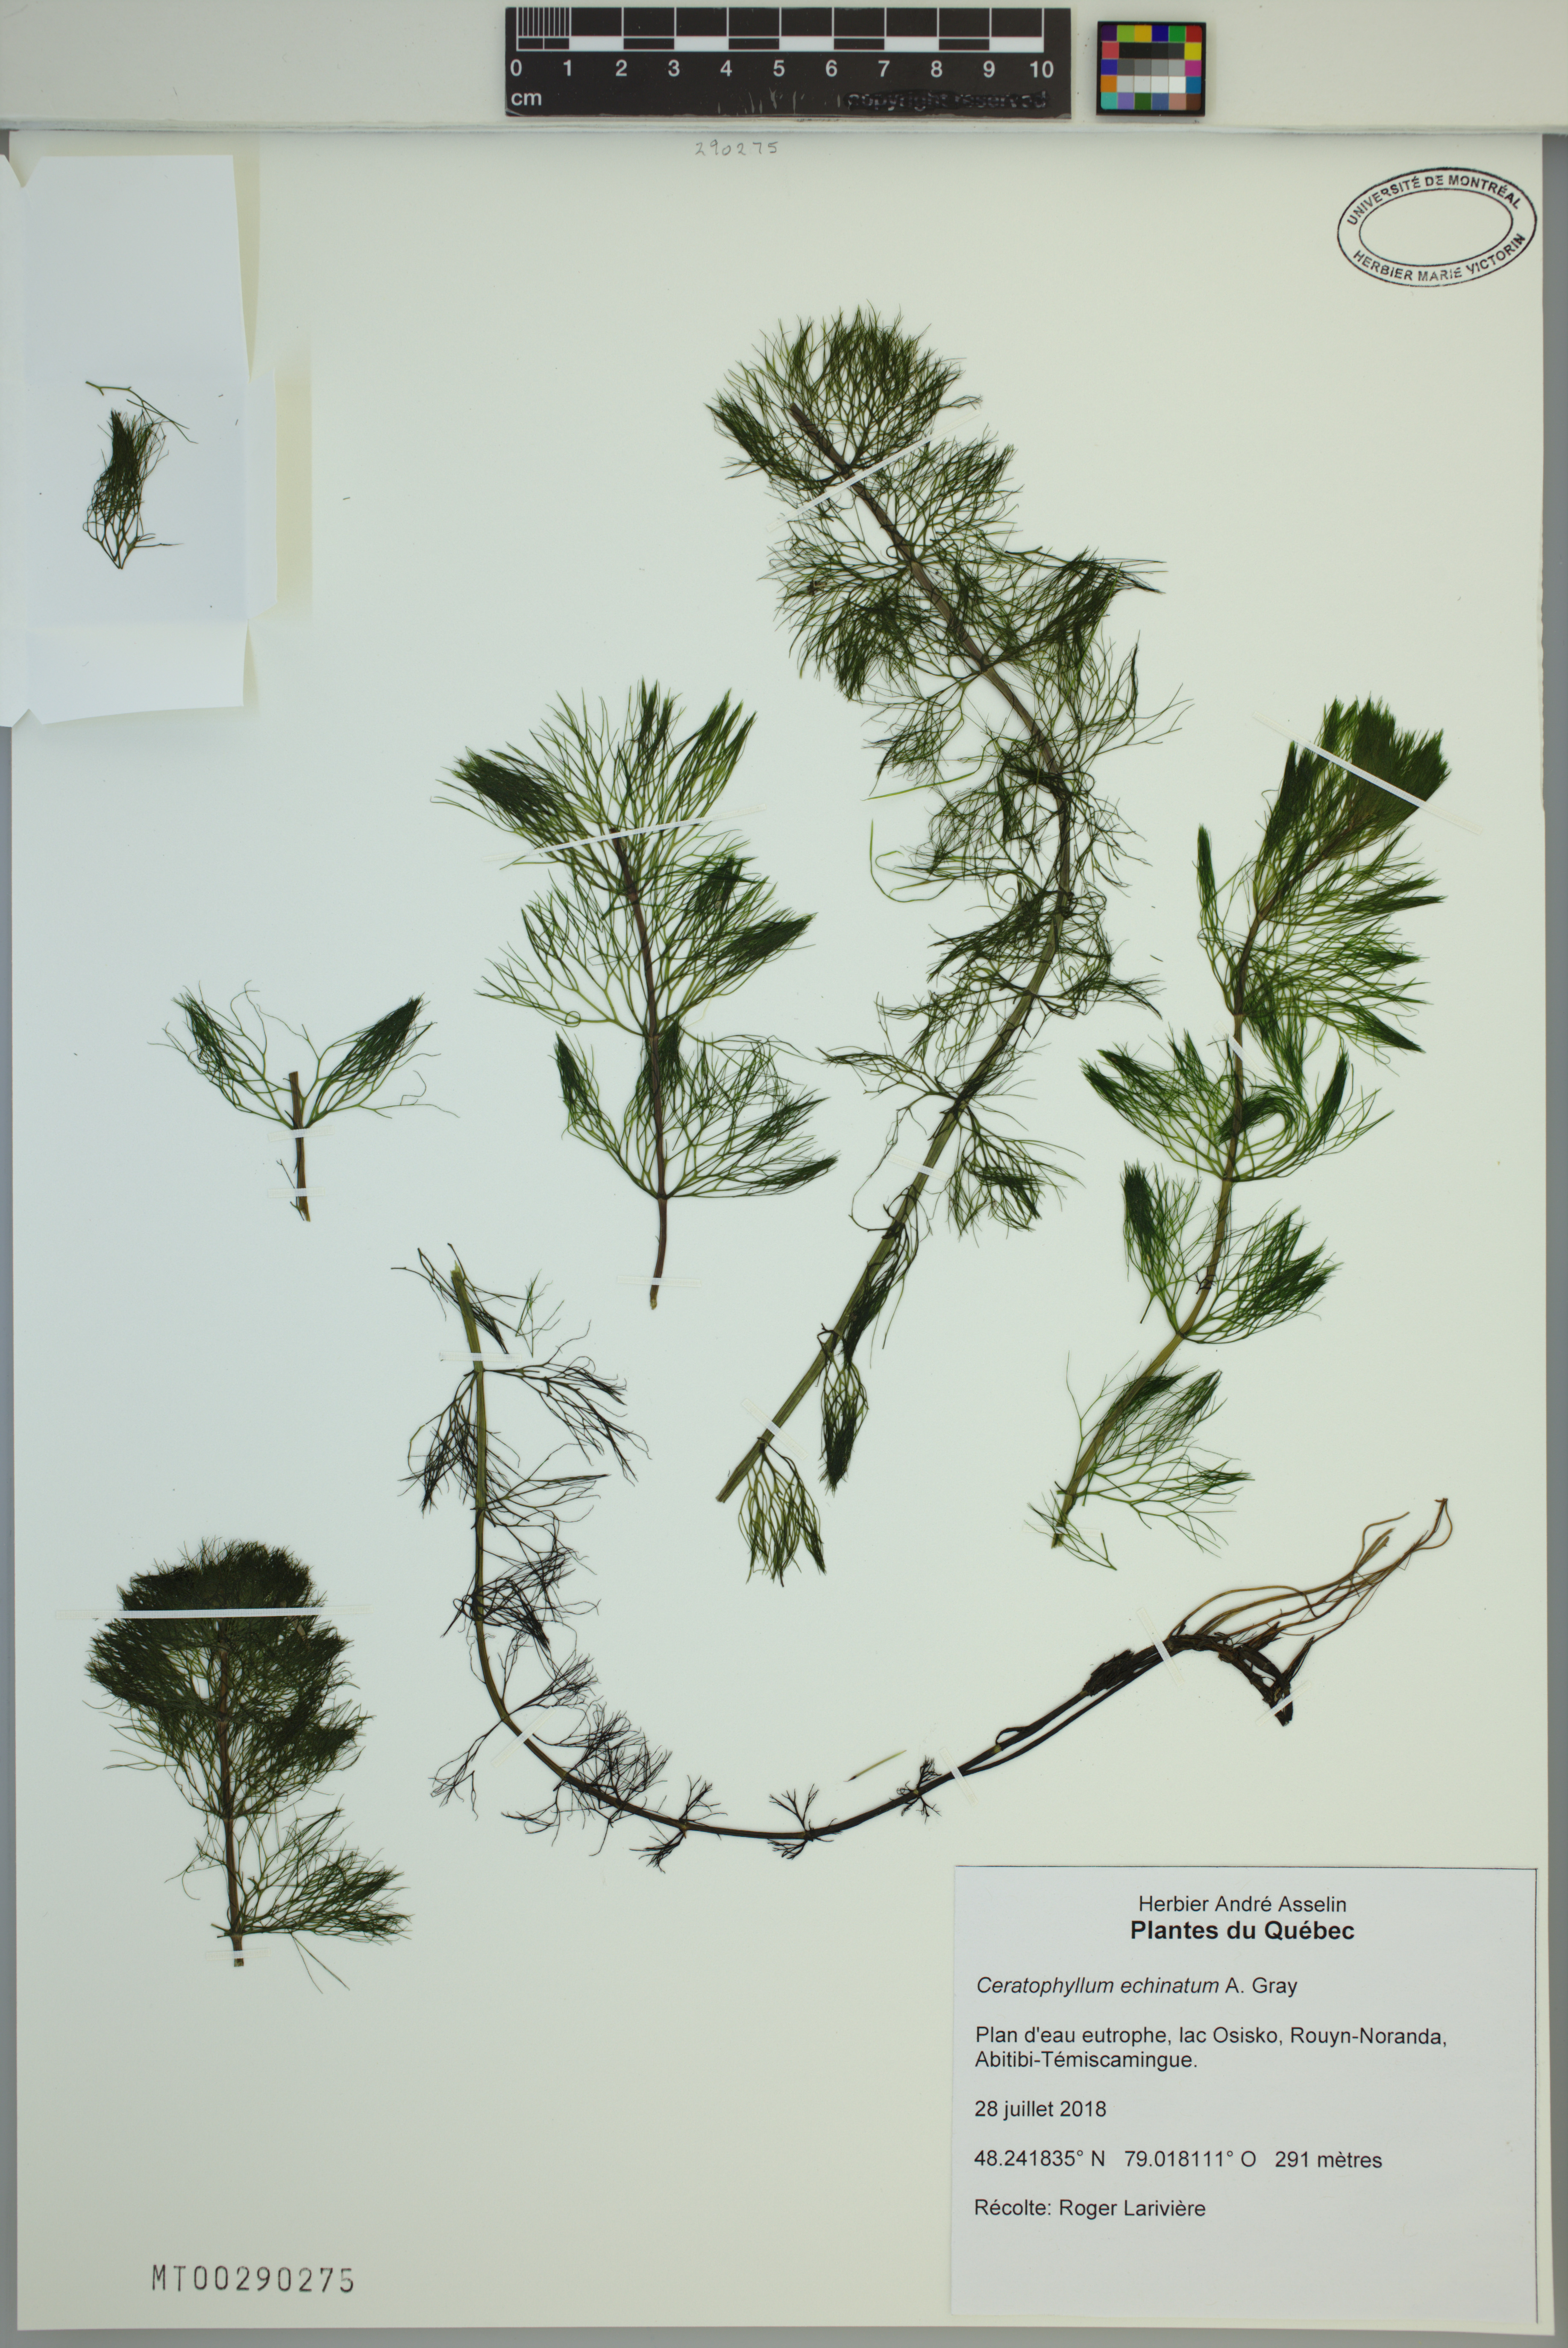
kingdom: Plantae
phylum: Tracheophyta
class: Magnoliopsida
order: Ceratophyllales
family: Ceratophyllaceae
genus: Ceratophyllum
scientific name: Ceratophyllum echinatum
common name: Prickly coontail
